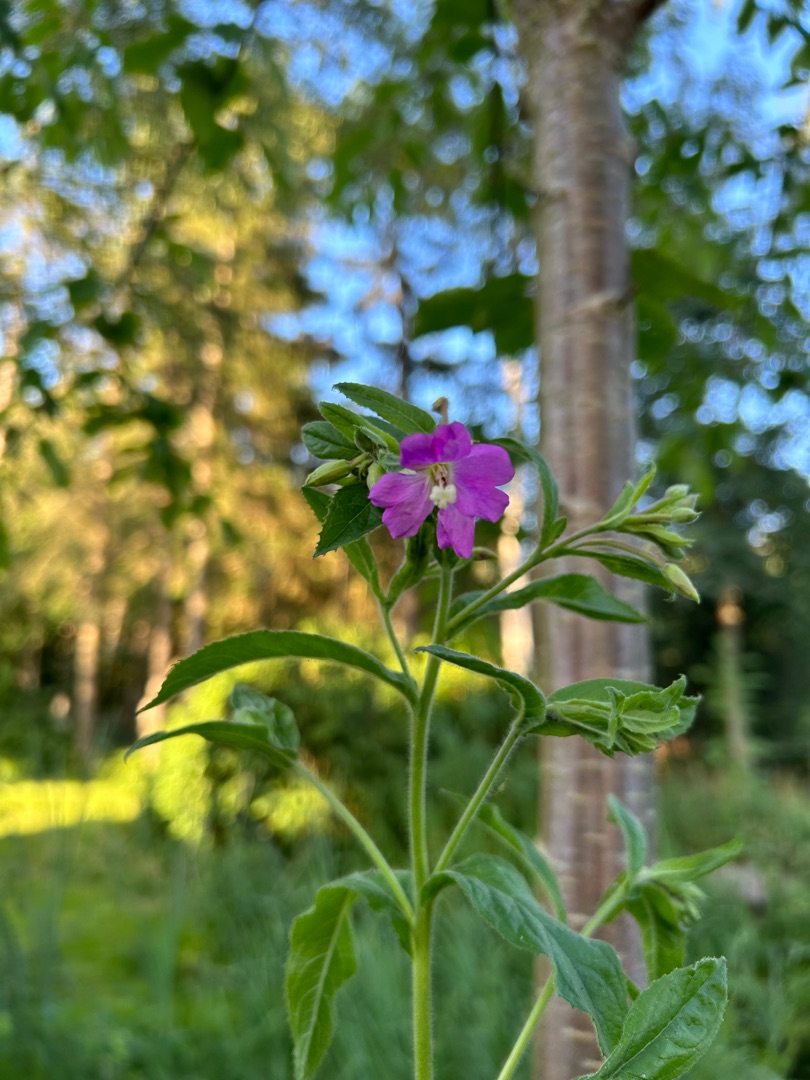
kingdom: Plantae
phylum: Tracheophyta
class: Magnoliopsida
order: Myrtales
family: Onagraceae
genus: Epilobium
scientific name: Epilobium hirsutum
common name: Lådden dueurt
